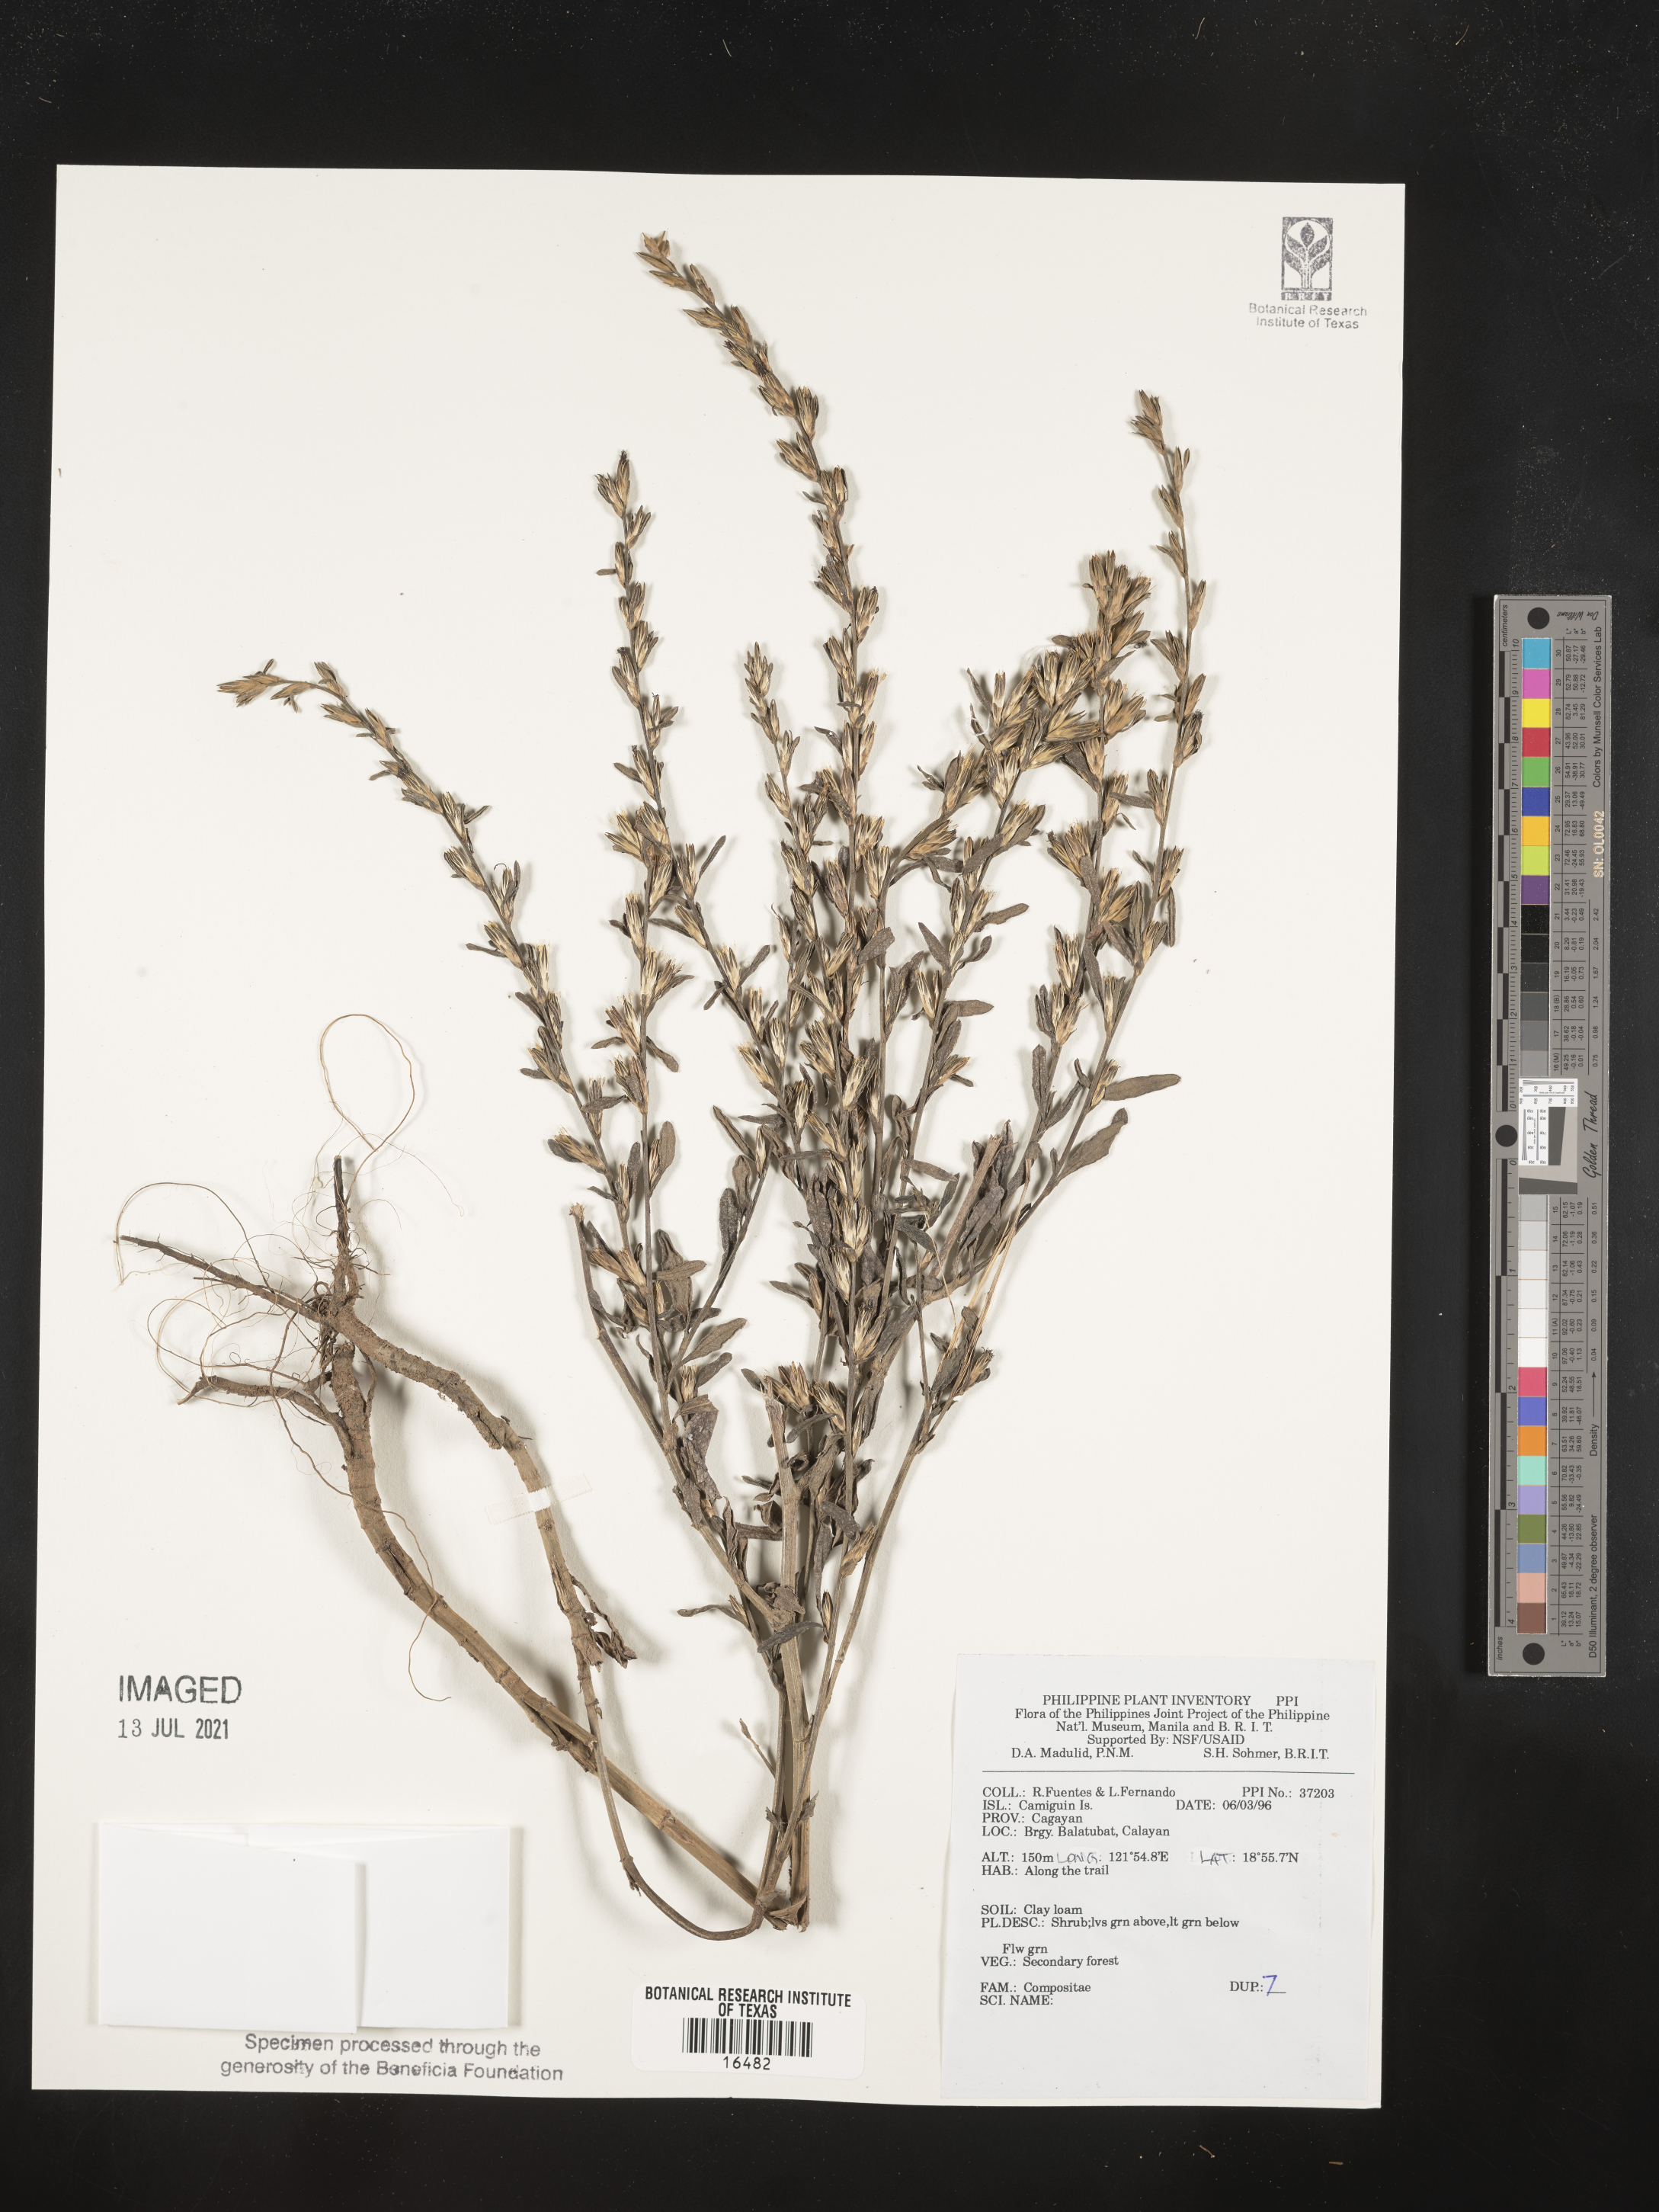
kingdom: Plantae
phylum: Tracheophyta
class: Magnoliopsida
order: Asterales
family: Asteraceae
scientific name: Asteraceae
